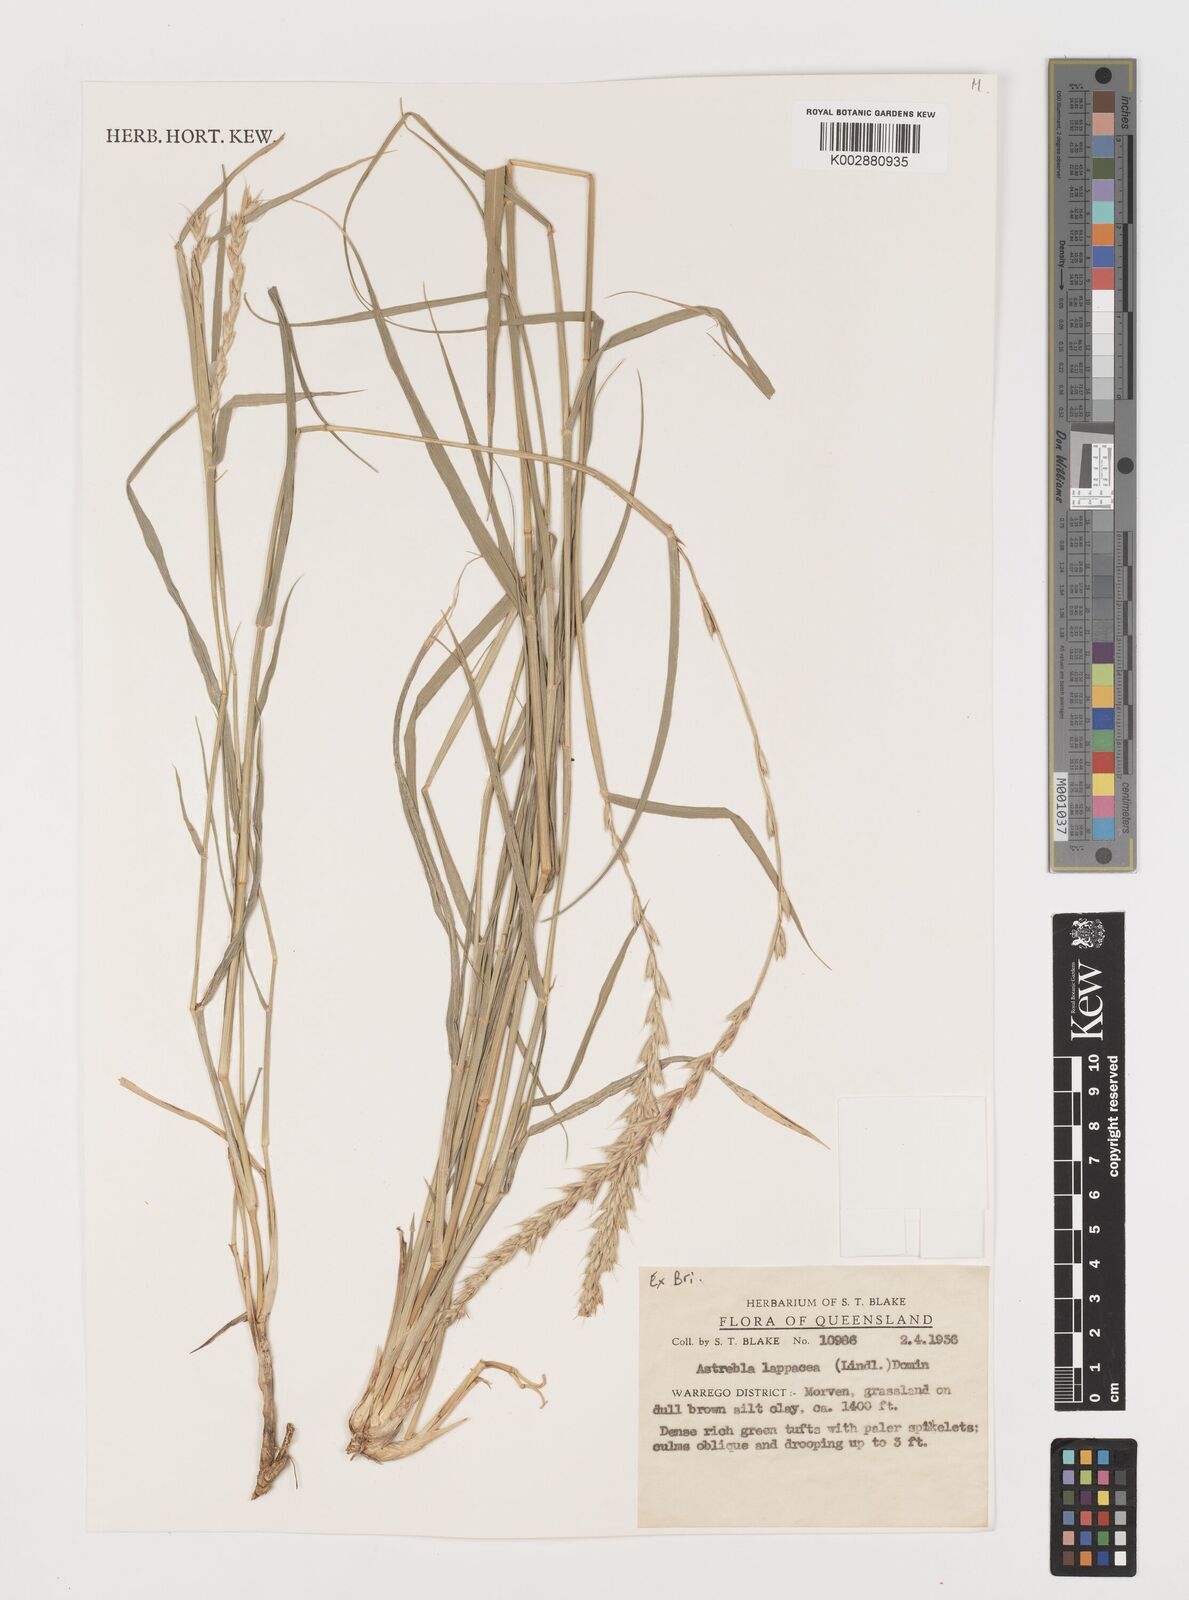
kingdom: Plantae
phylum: Tracheophyta
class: Liliopsida
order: Poales
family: Poaceae
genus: Astrebla
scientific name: Astrebla lappacea
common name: Curly mitchell grass
